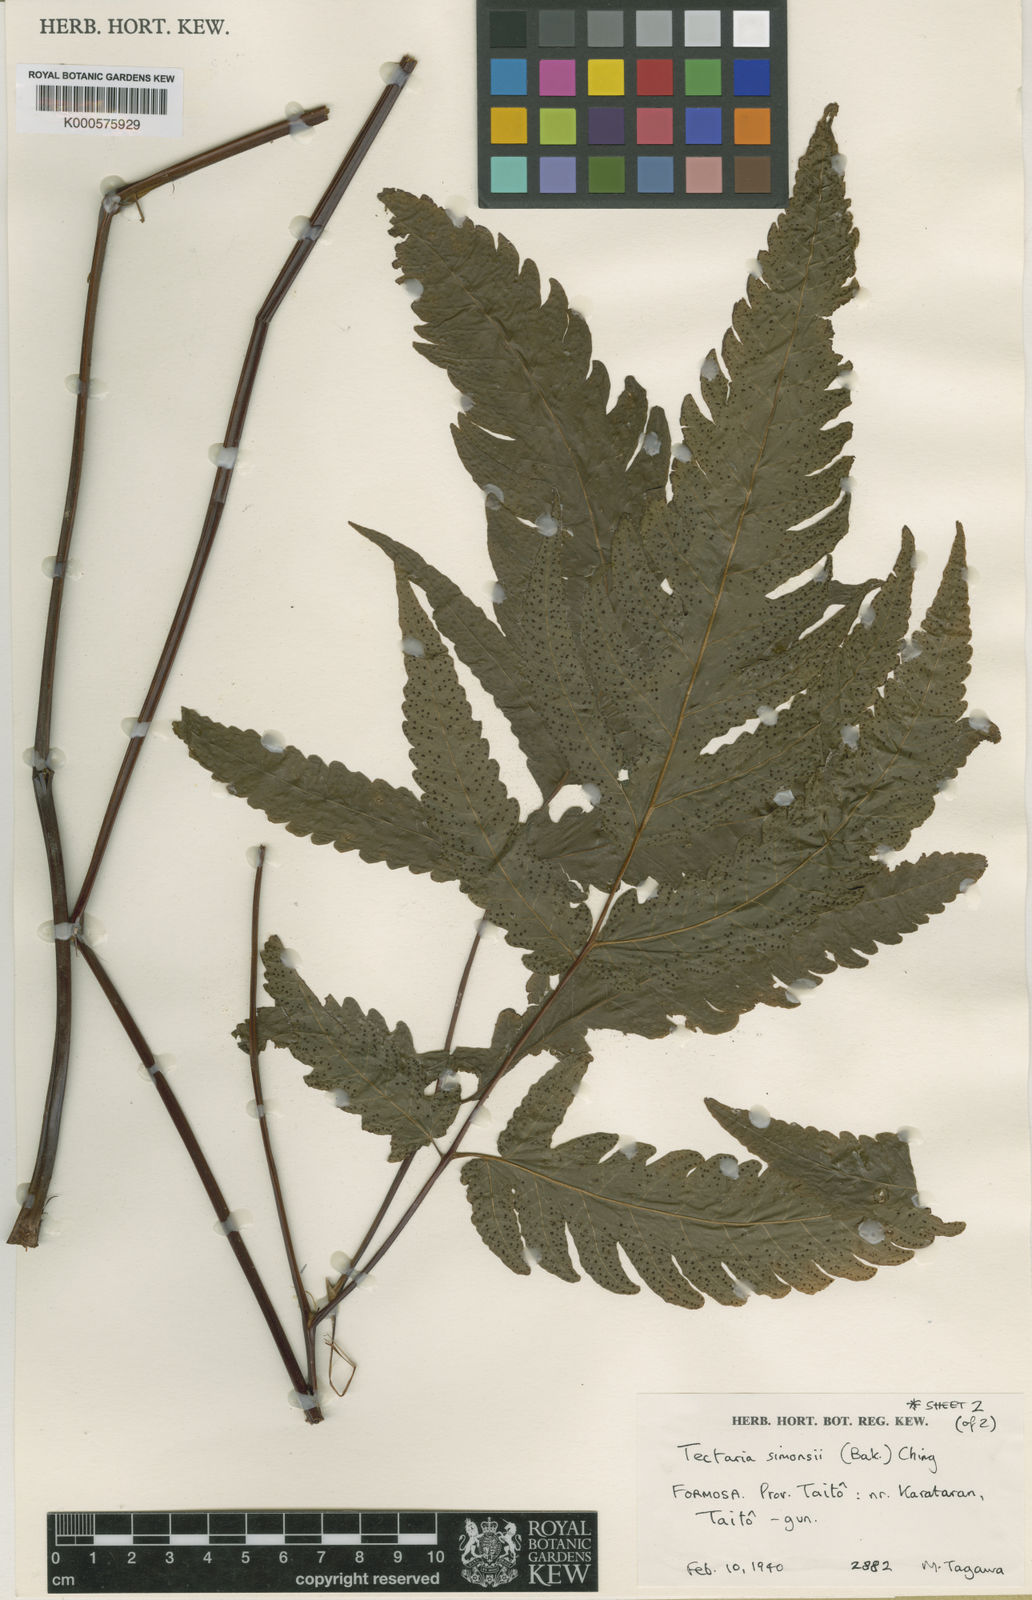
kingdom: Plantae
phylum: Tracheophyta
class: Polypodiopsida
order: Polypodiales
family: Tectariaceae
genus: Tectaria
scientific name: Tectaria subtriphylla
